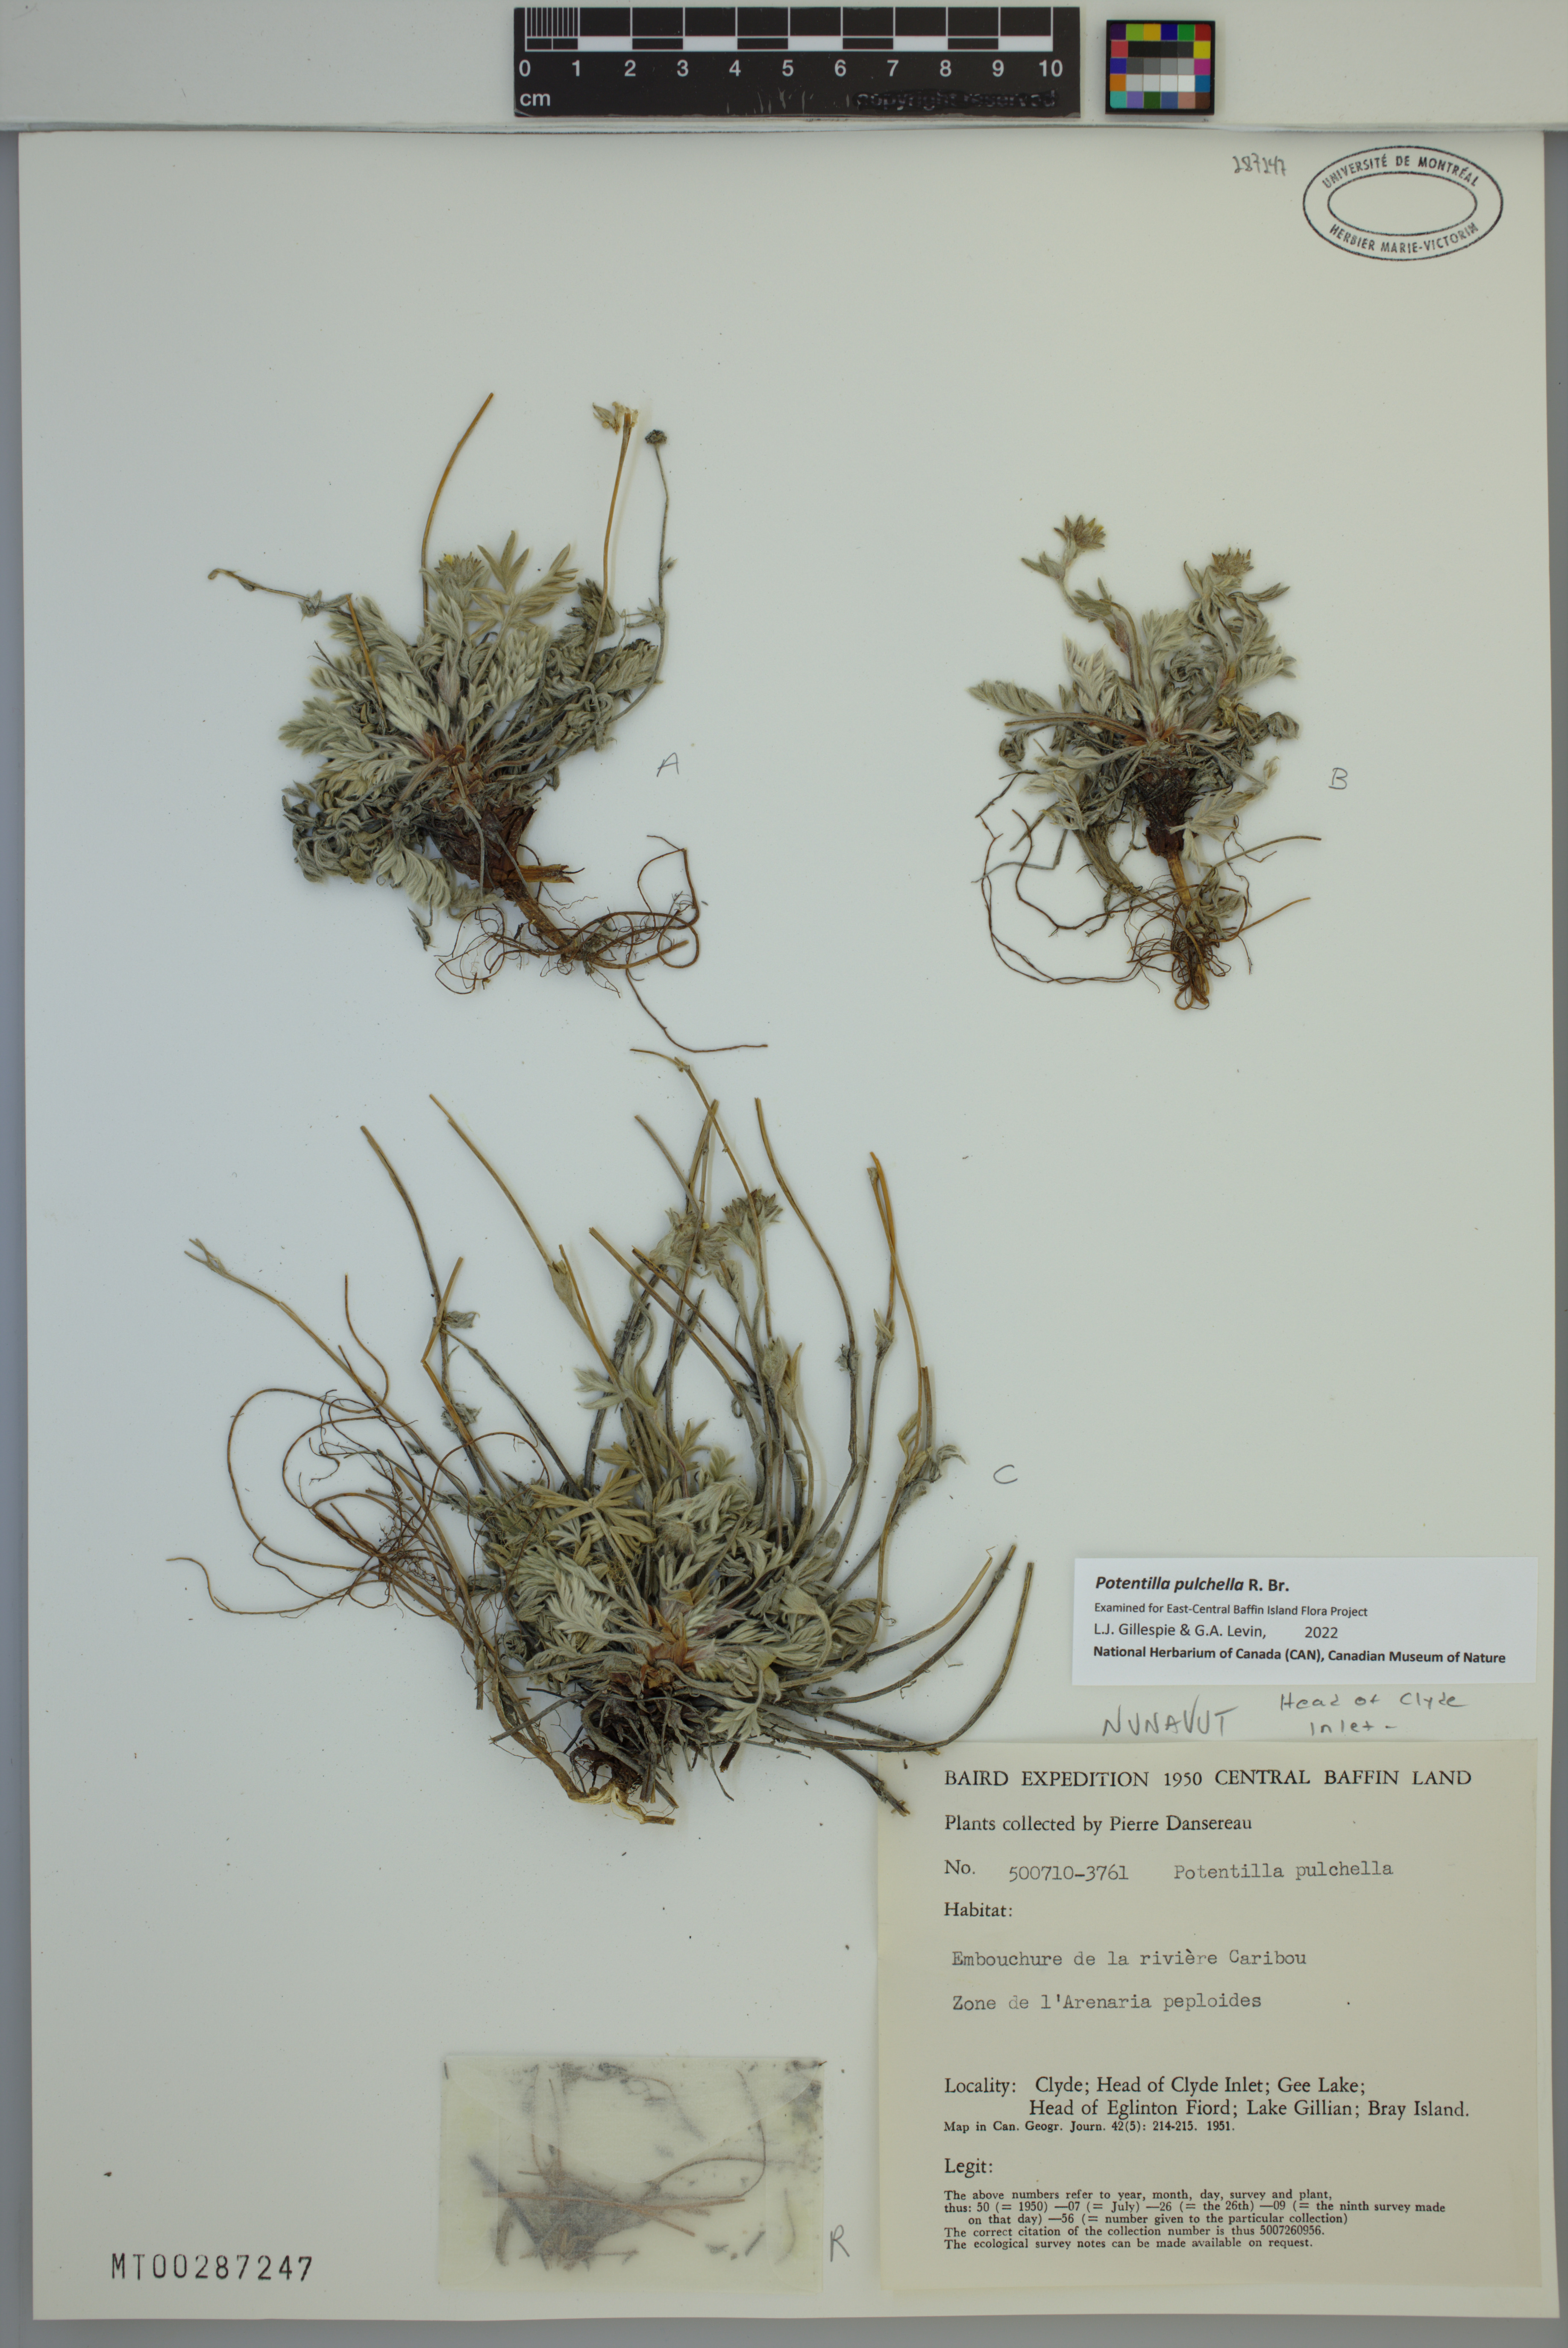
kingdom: Plantae
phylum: Tracheophyta
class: Magnoliopsida
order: Rosales
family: Rosaceae
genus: Potentilla
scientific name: Potentilla pulchella
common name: Pretty cinquefoil
